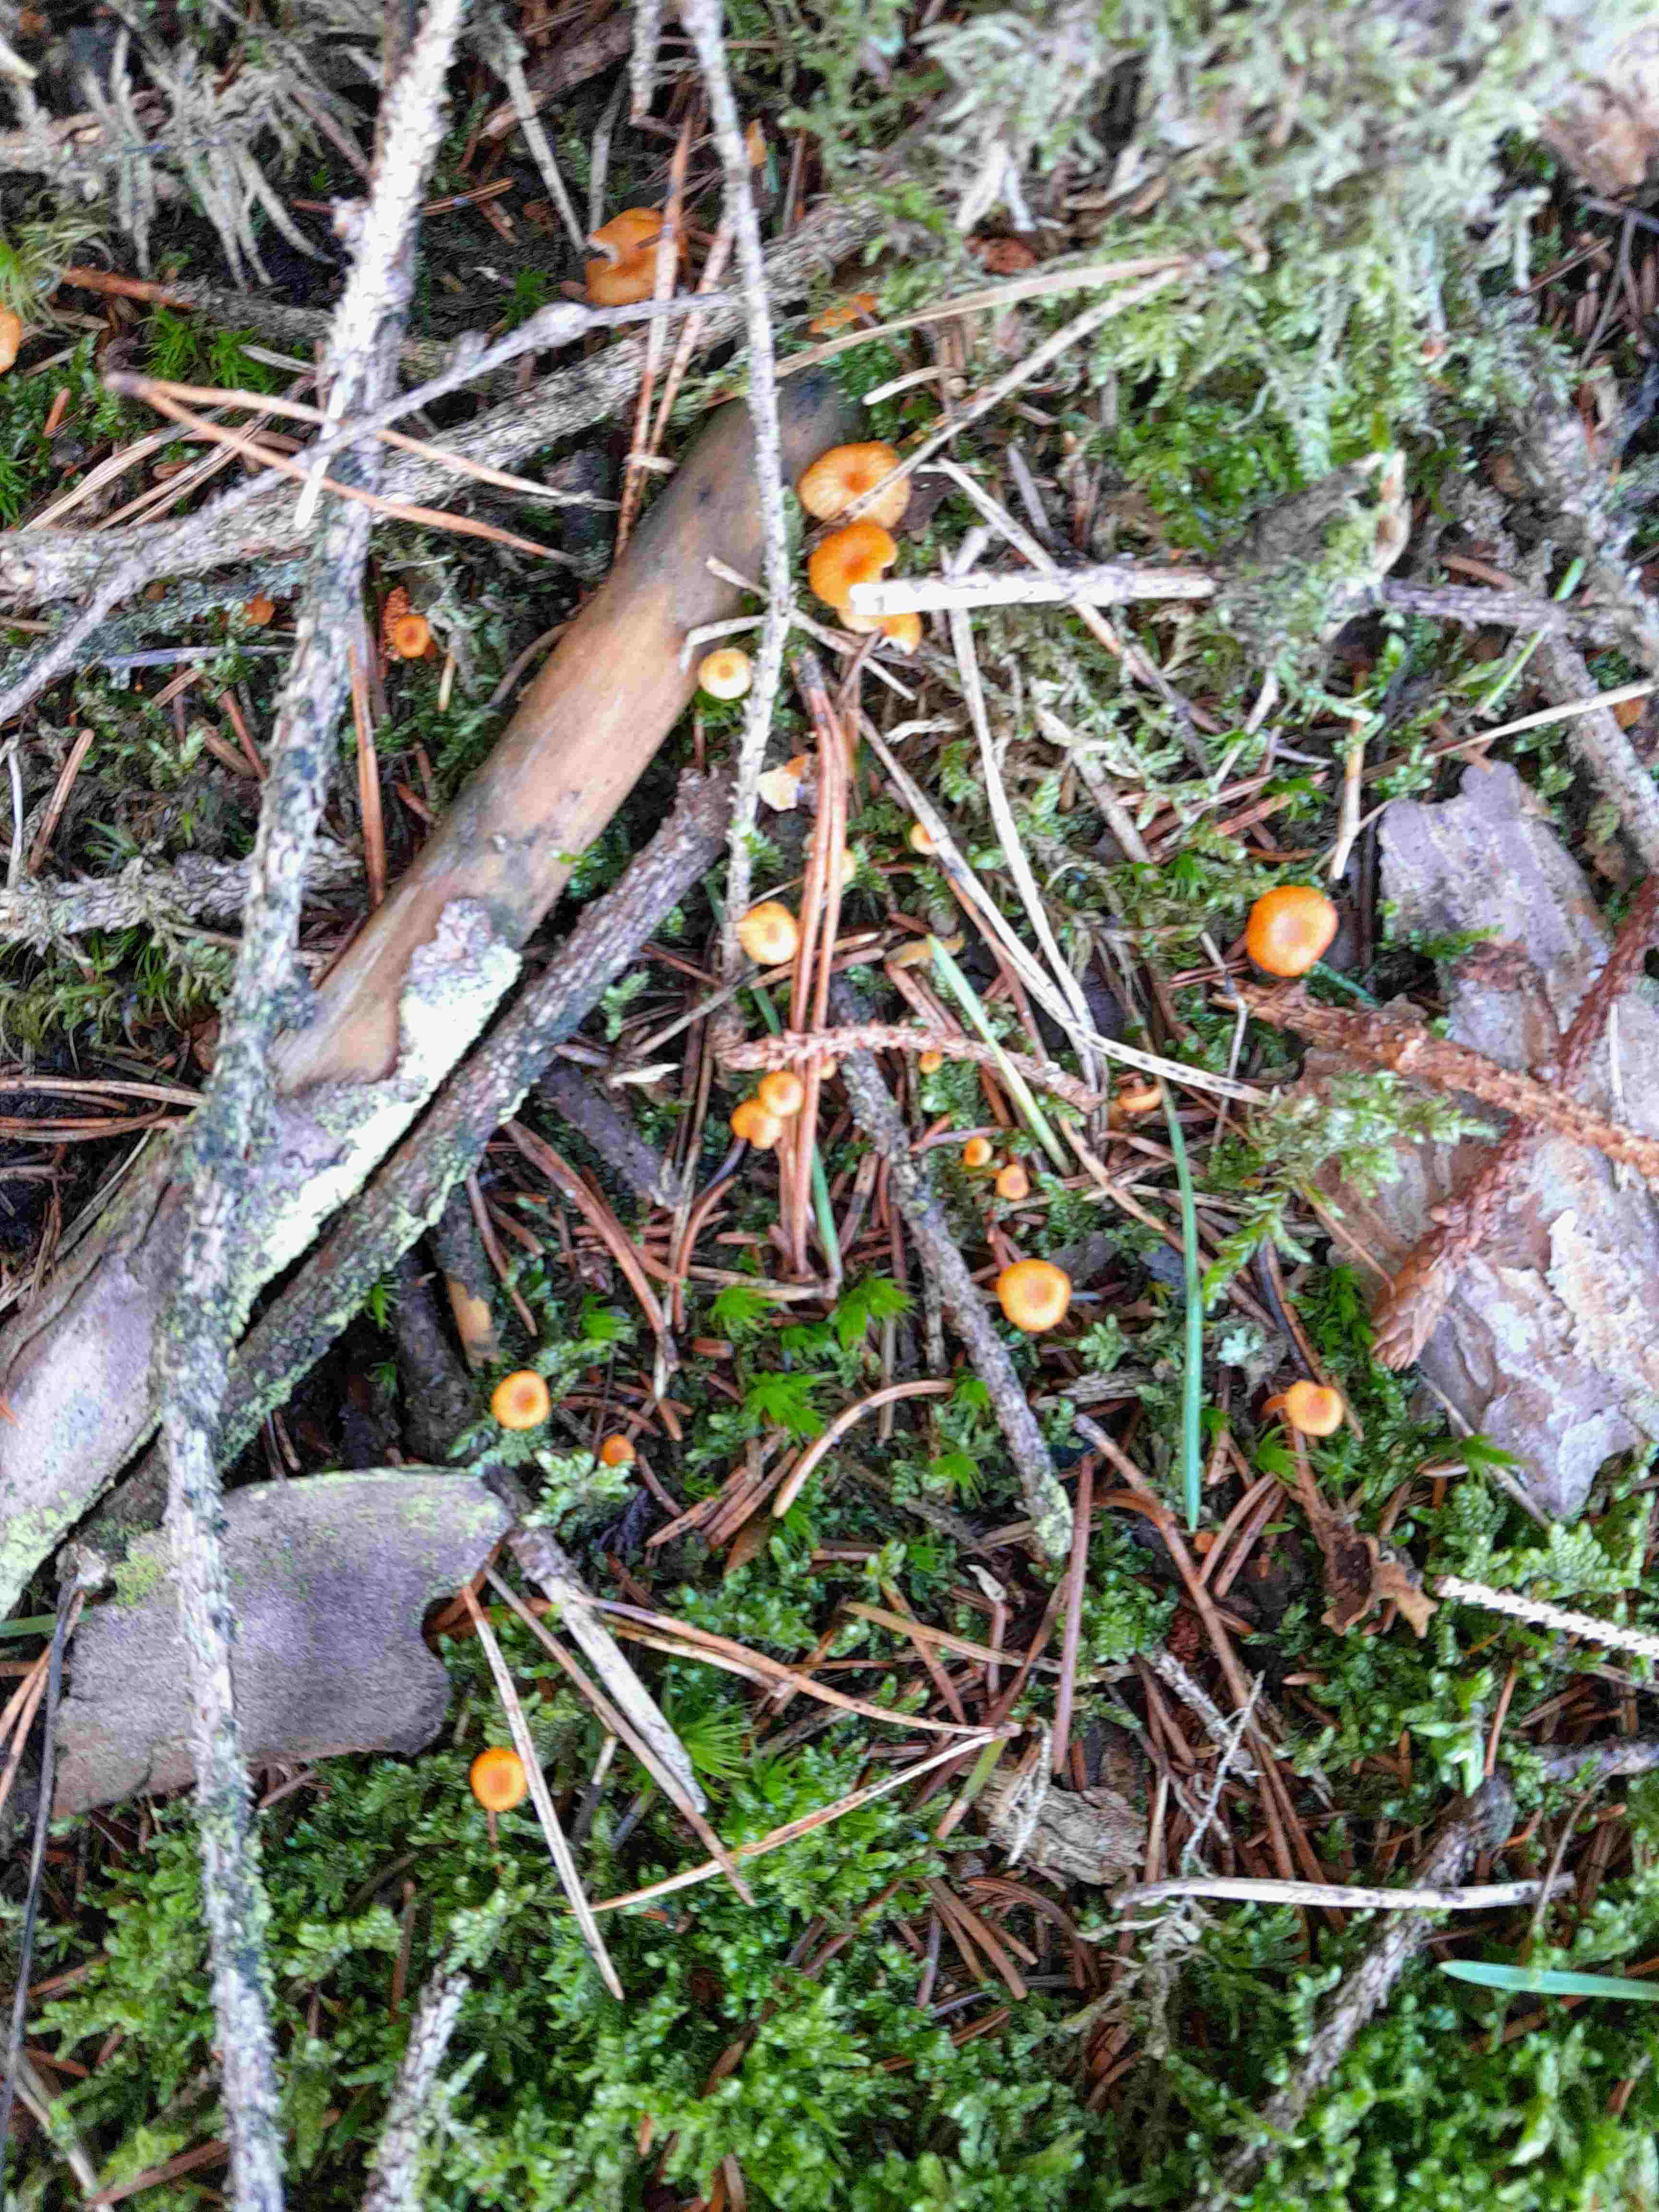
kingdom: Fungi
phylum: Basidiomycota
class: Agaricomycetes
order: Hymenochaetales
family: Rickenellaceae
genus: Rickenella
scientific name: Rickenella fibula
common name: orange mosnavlehat
